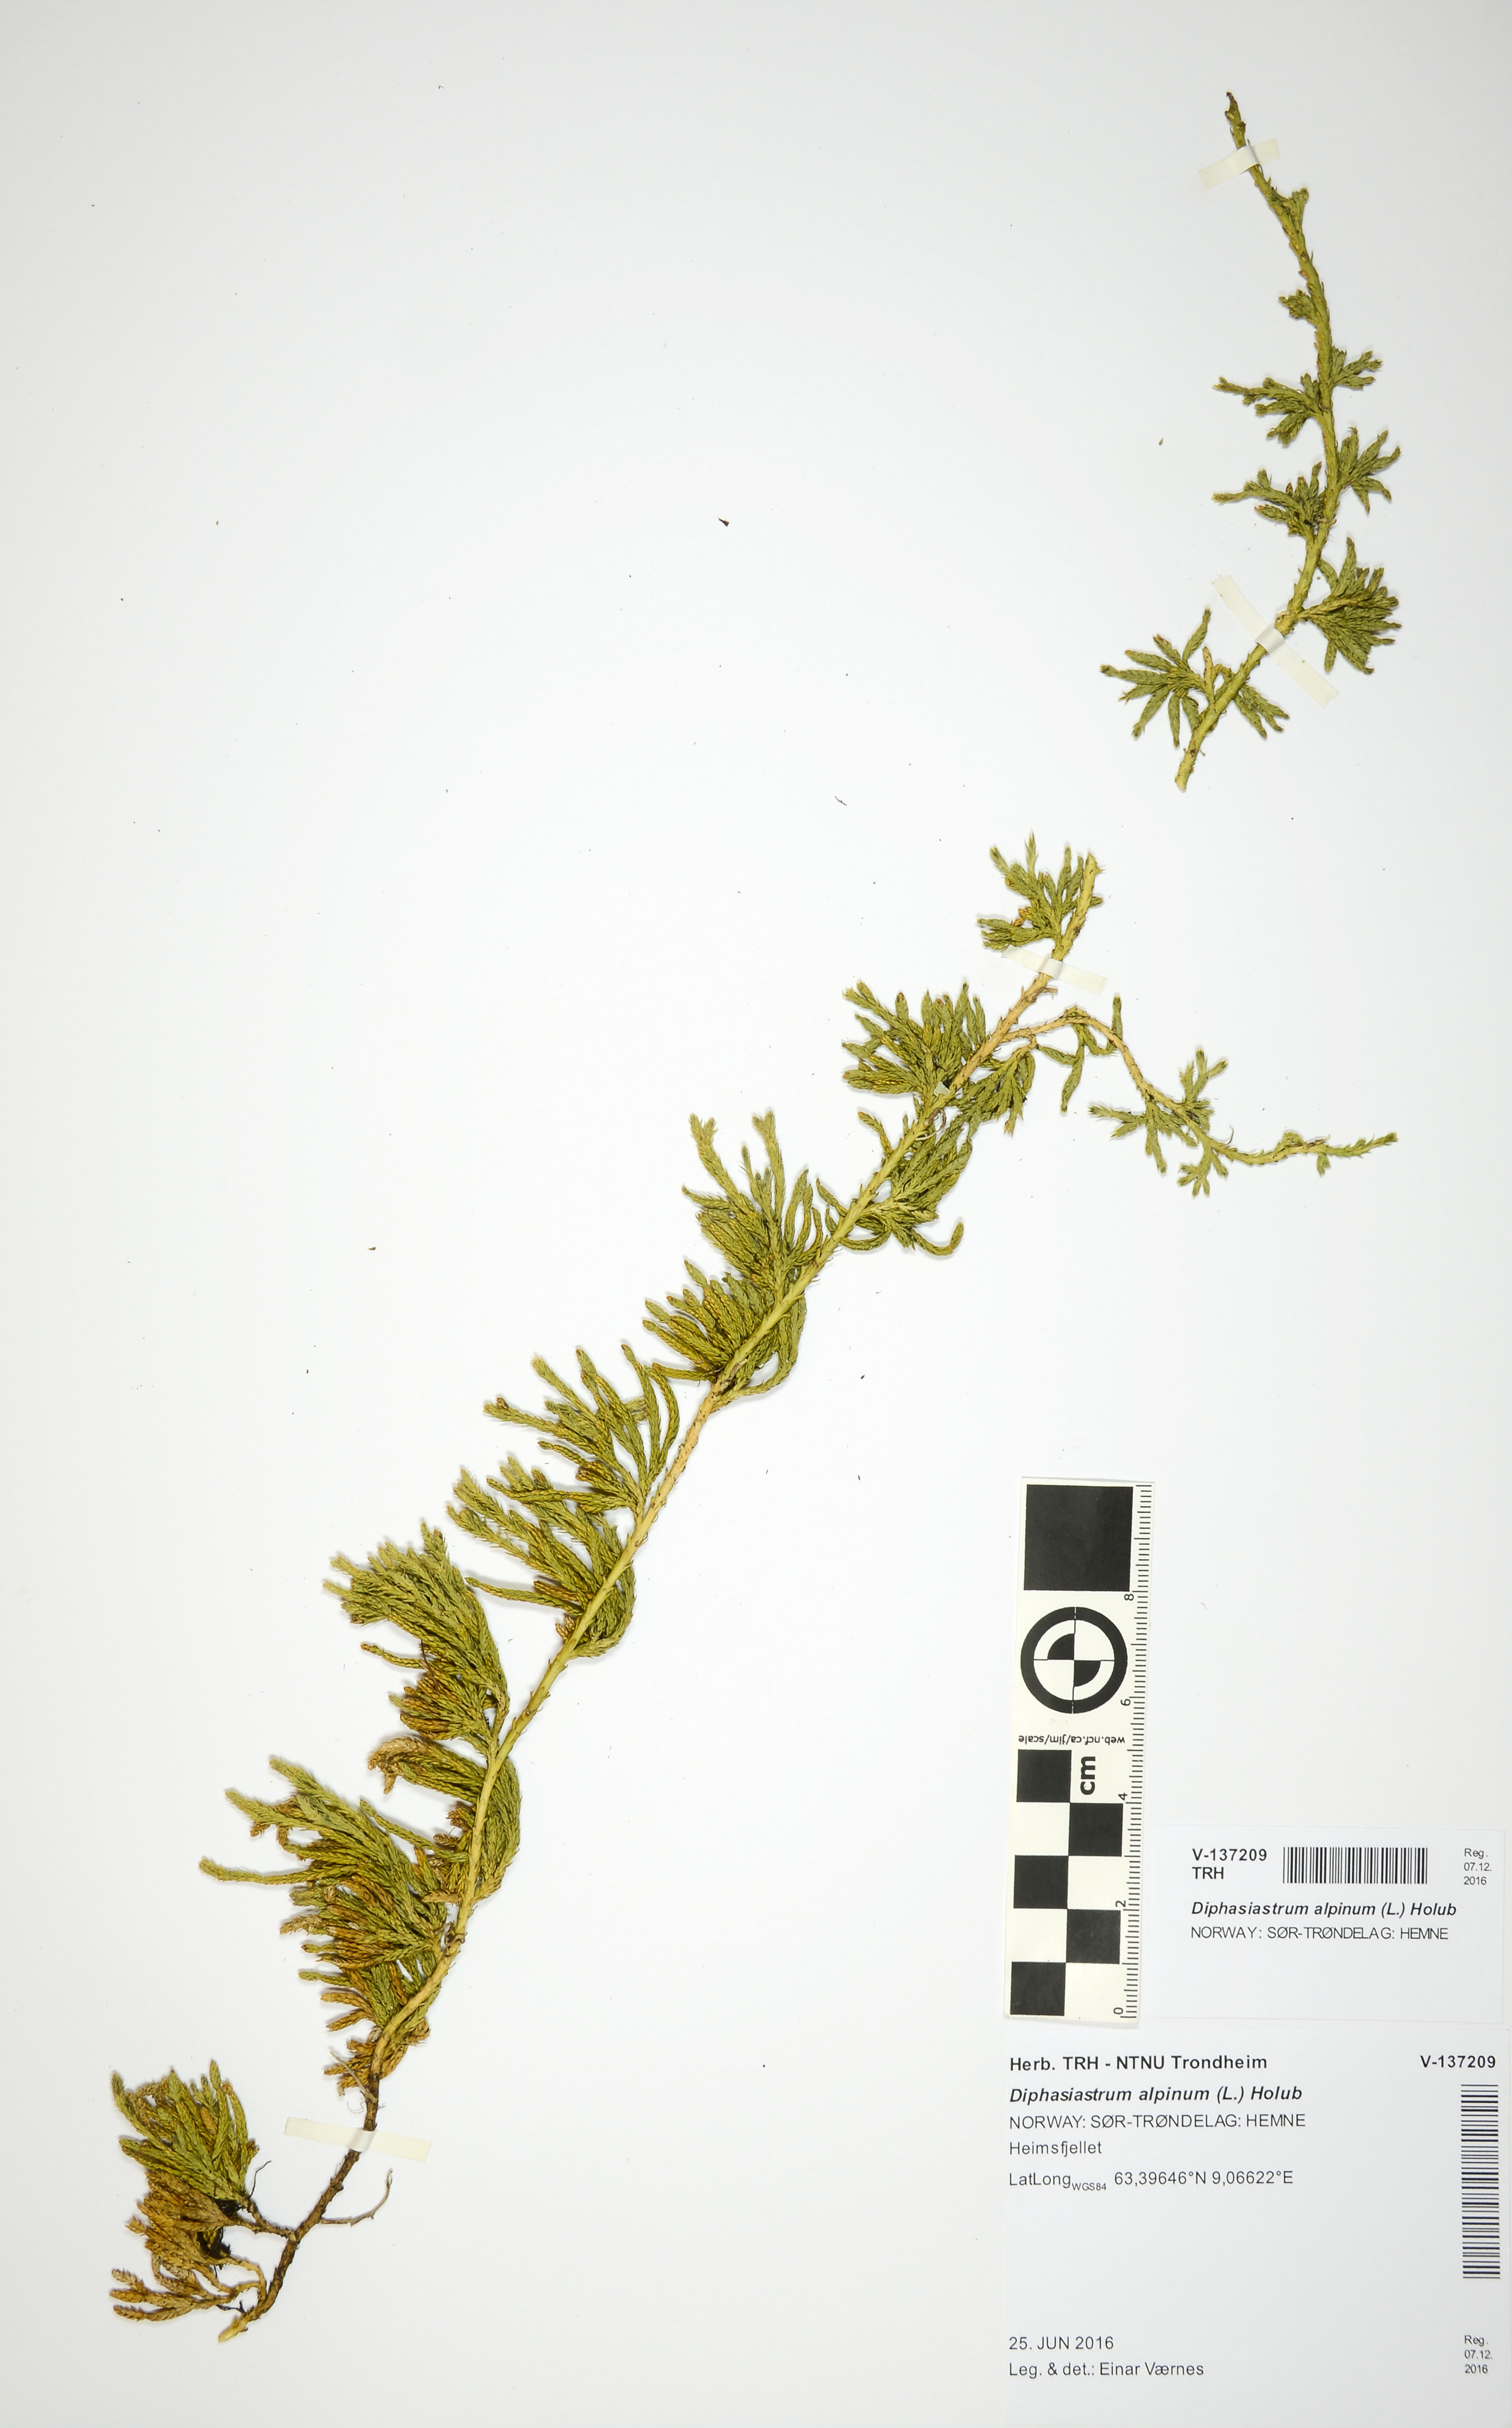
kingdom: Plantae
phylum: Tracheophyta
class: Lycopodiopsida
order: Lycopodiales
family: Lycopodiaceae
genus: Diphasiastrum
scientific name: Diphasiastrum alpinum
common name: Alpine clubmoss
